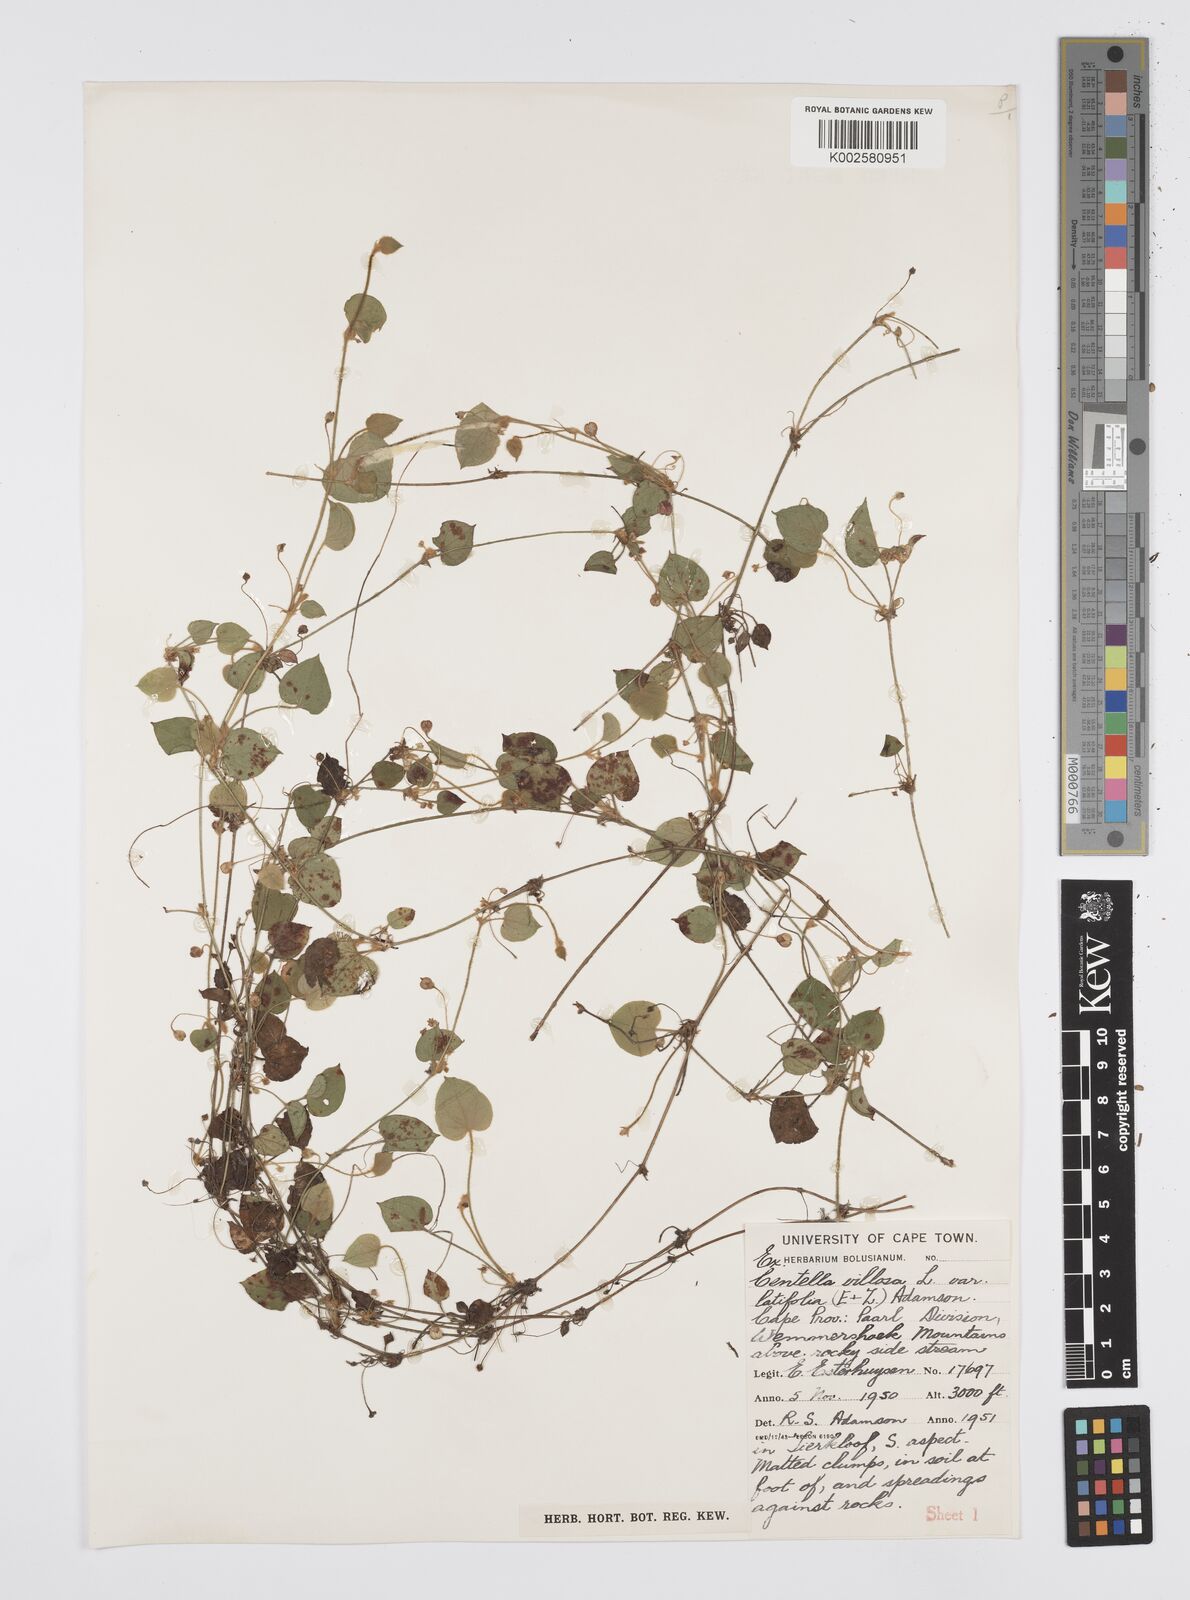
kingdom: Plantae
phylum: Tracheophyta
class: Magnoliopsida
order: Apiales
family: Apiaceae
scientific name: Apiaceae
